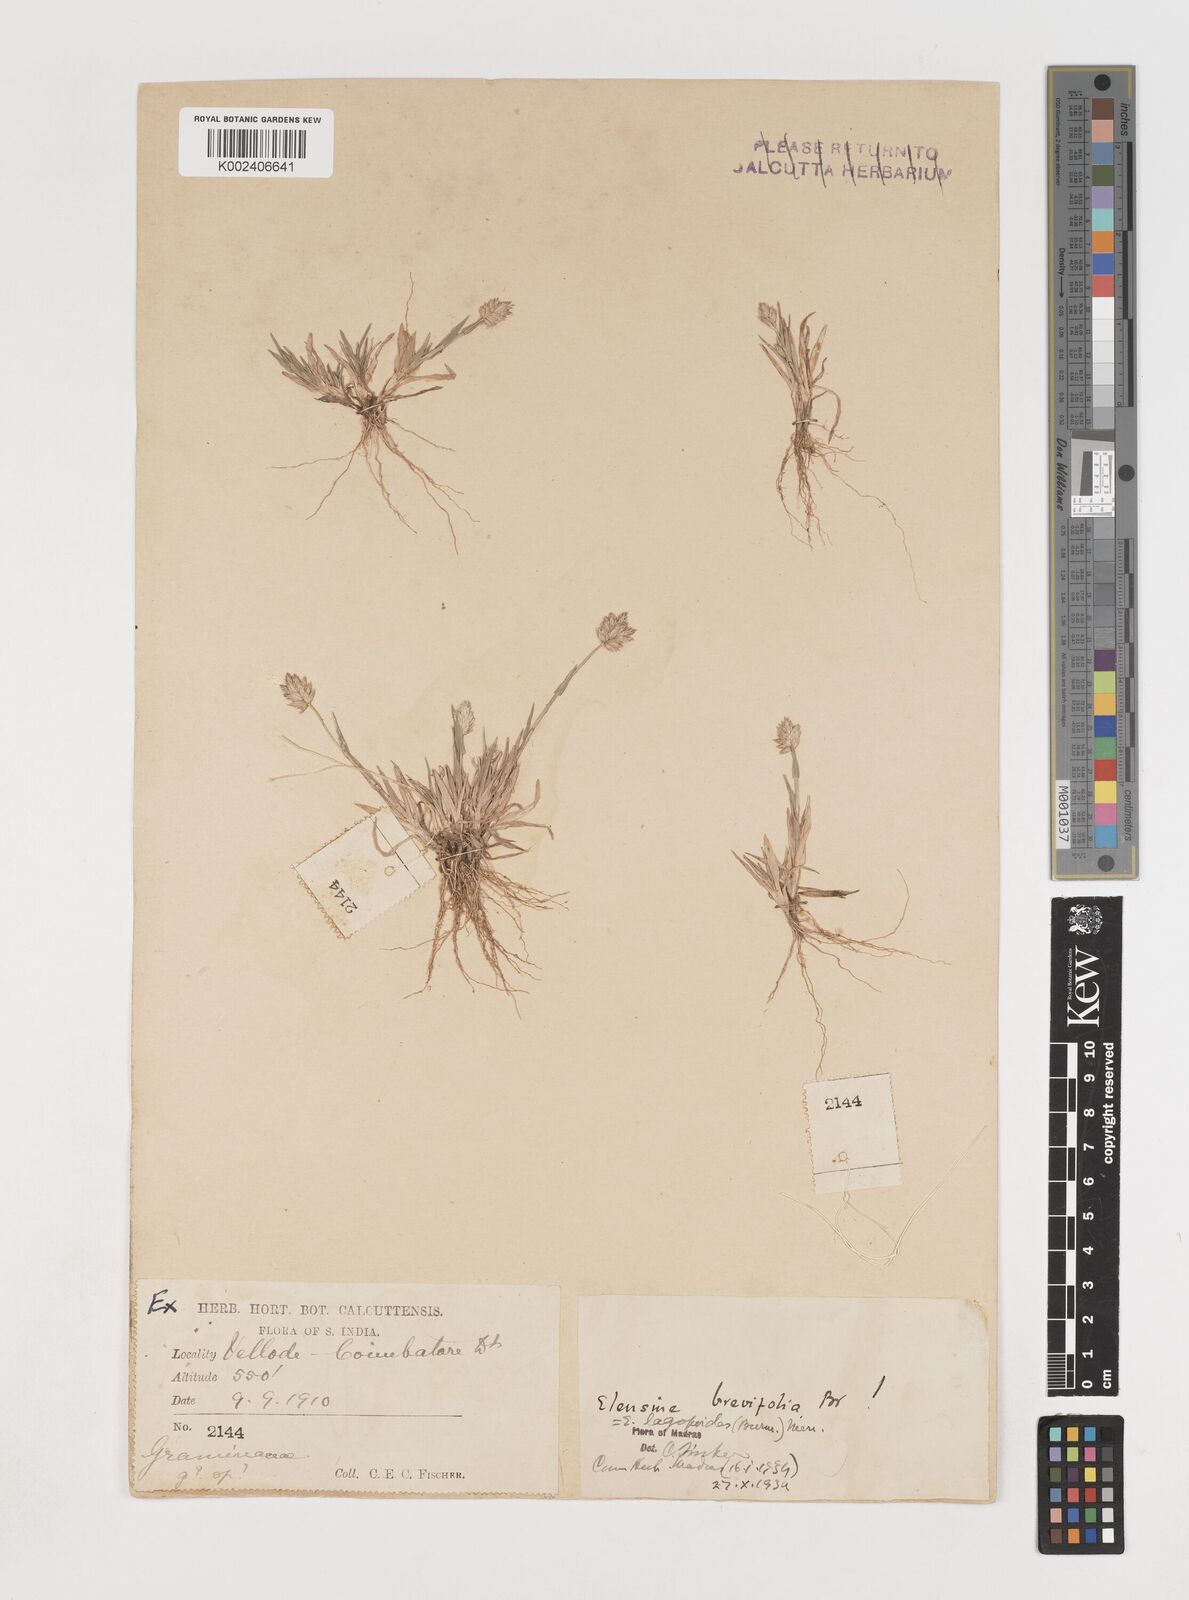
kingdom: Plantae
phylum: Tracheophyta
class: Liliopsida
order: Poales
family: Poaceae
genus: Coelachyrum
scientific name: Coelachyrum lagopoides
